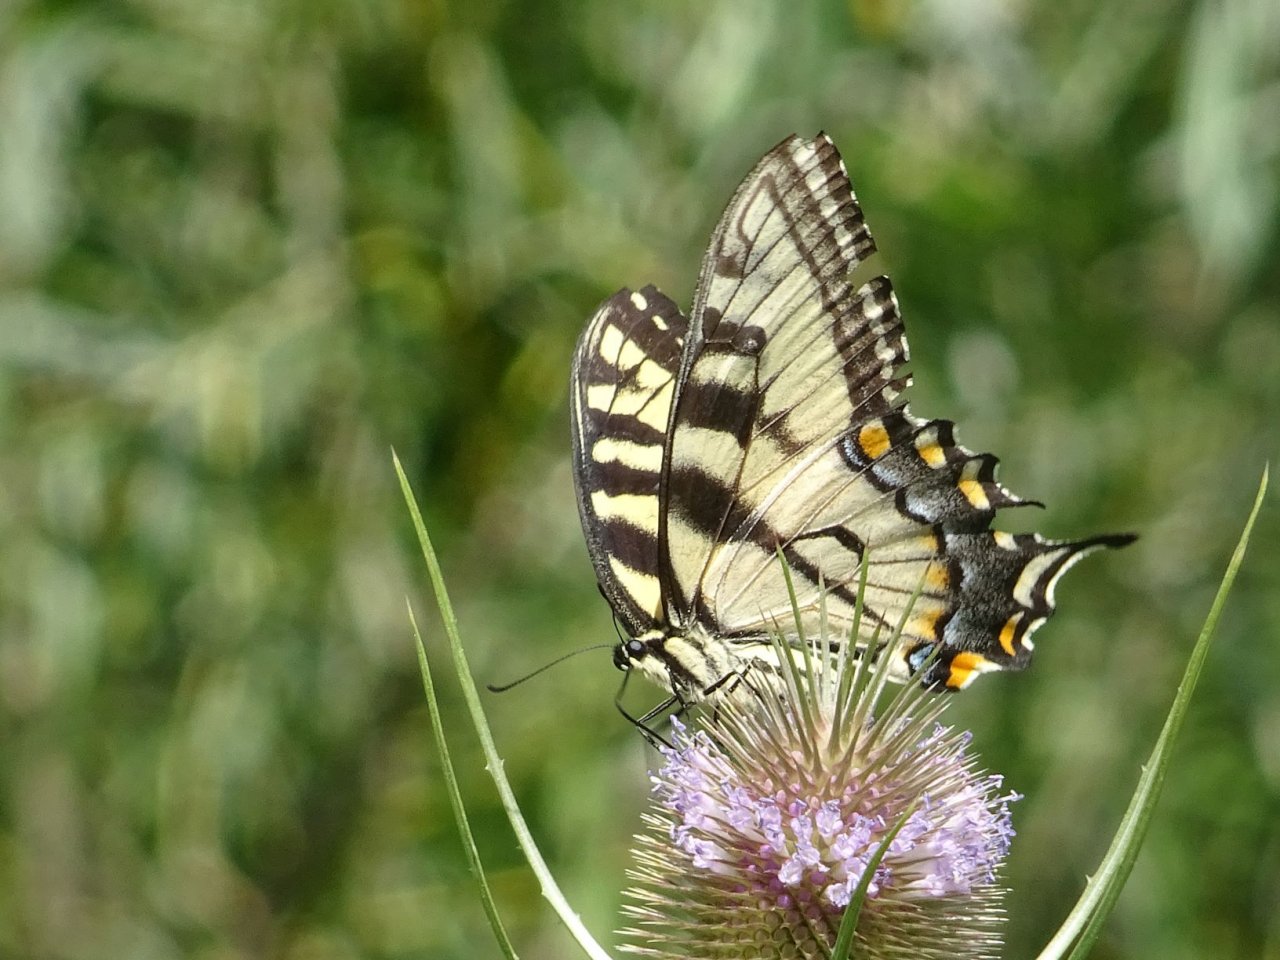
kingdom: Animalia
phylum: Arthropoda
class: Insecta
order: Lepidoptera
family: Papilionidae
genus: Pterourus
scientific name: Pterourus
